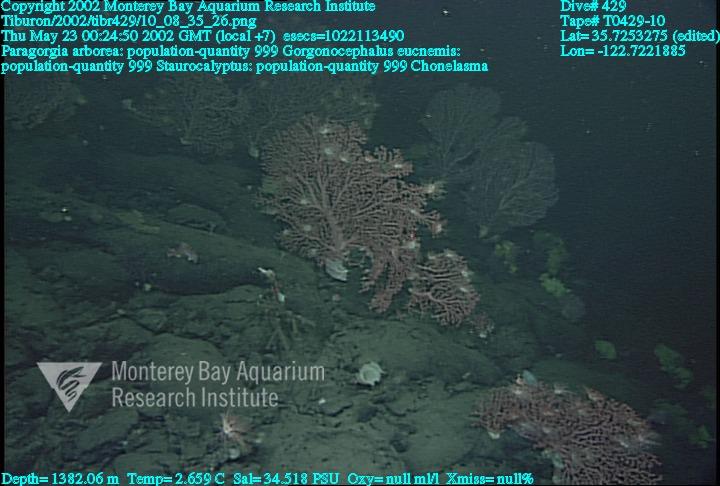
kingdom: Animalia
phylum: Porifera
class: Hexactinellida
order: Lyssacinosida
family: Rossellidae
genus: Staurocalyptus
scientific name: Staurocalyptus
